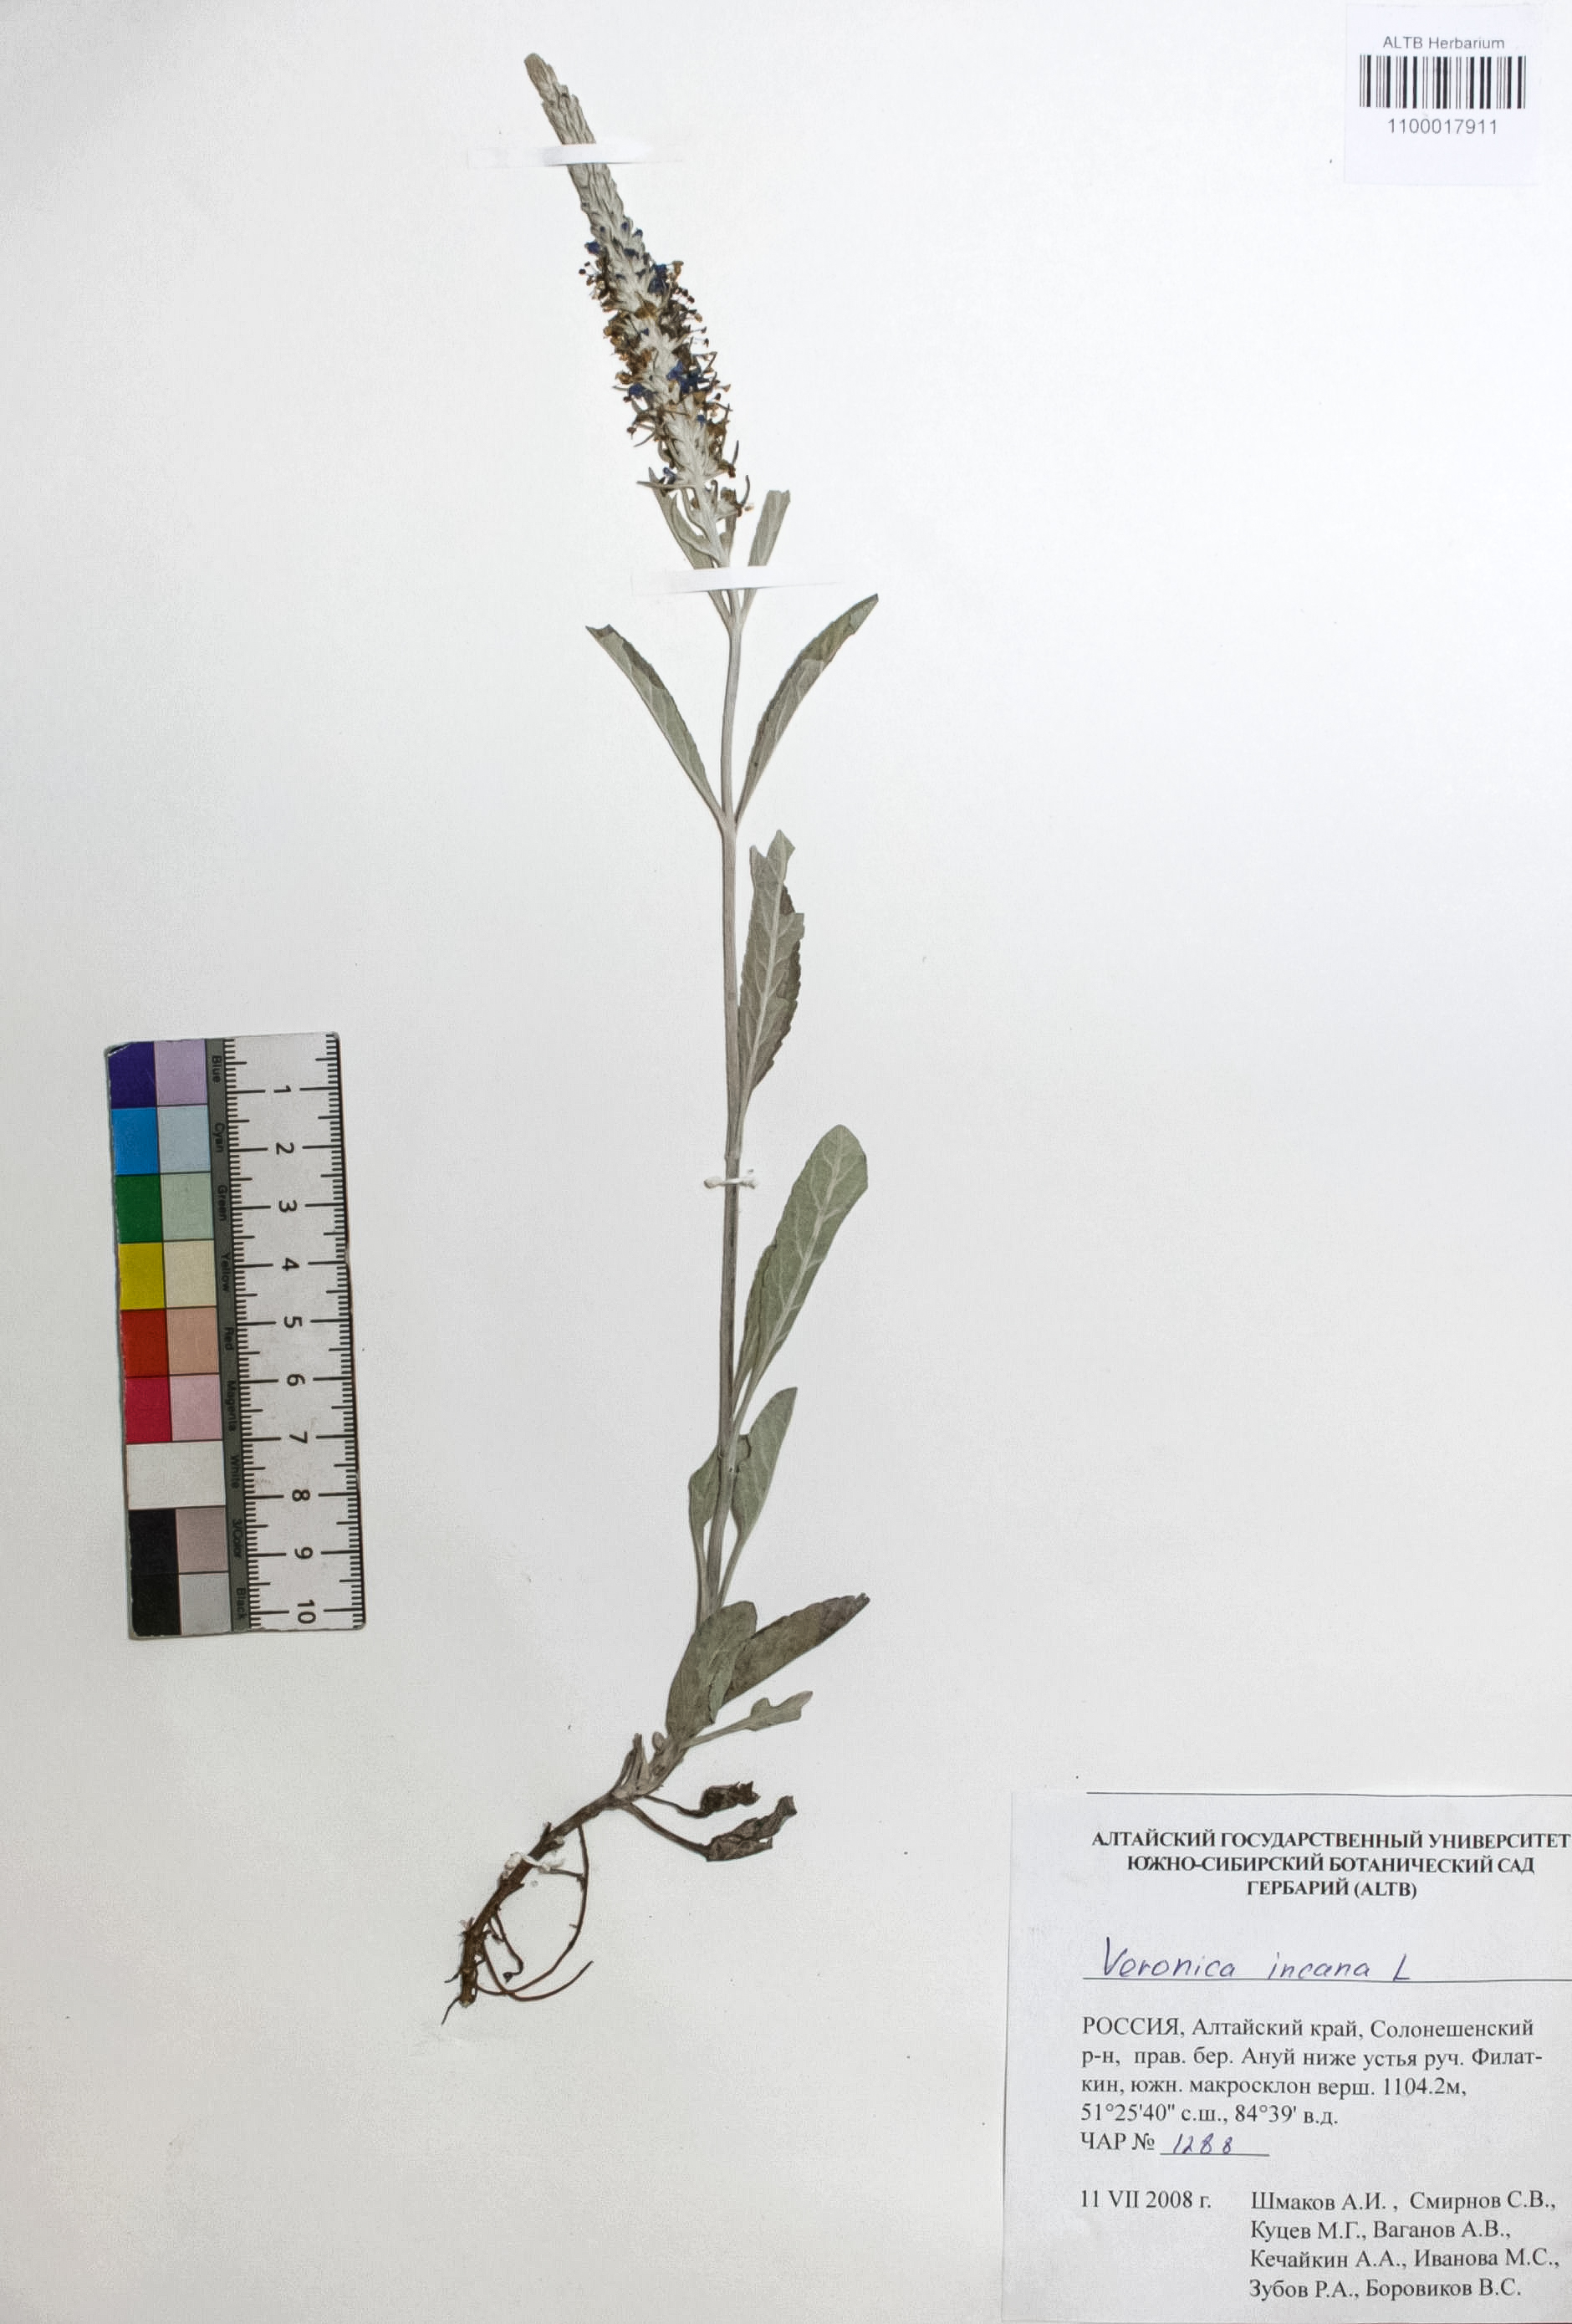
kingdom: Plantae
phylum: Tracheophyta
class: Magnoliopsida
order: Lamiales
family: Plantaginaceae
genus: Veronica
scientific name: Veronica incana
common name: Silver speedwell
